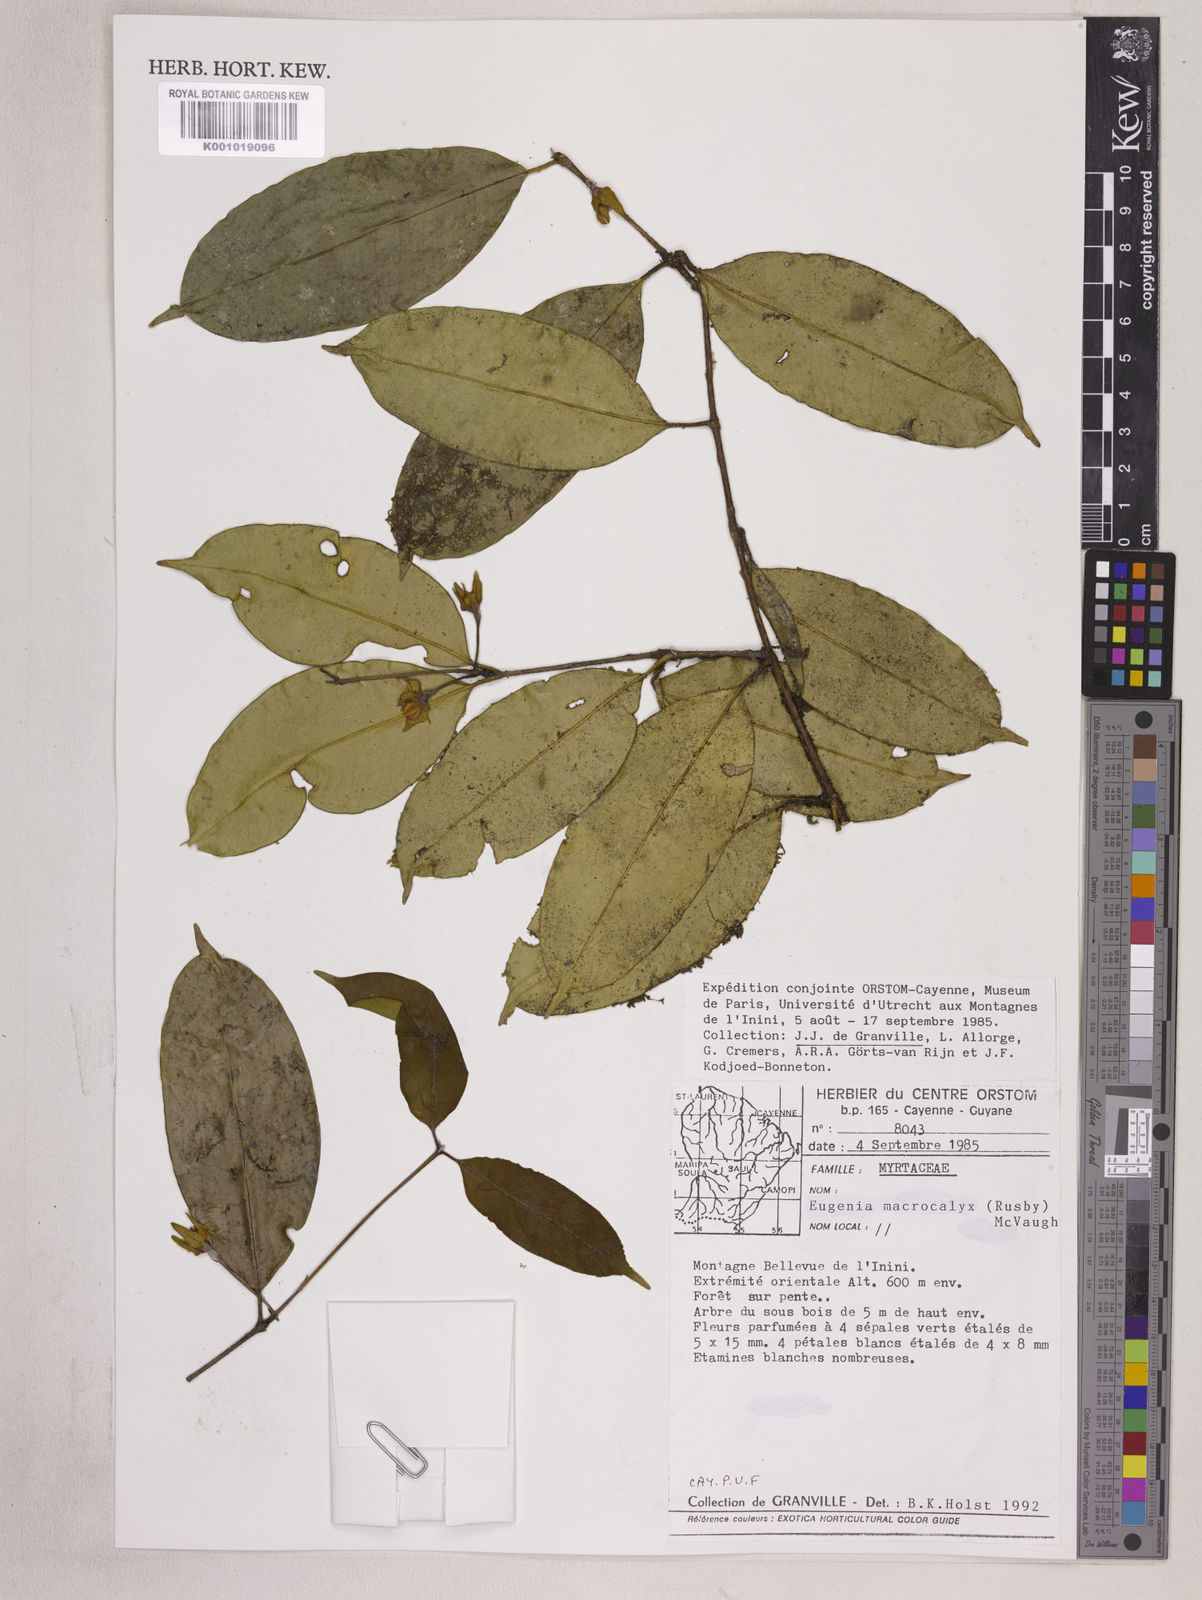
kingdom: Plantae
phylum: Tracheophyta
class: Magnoliopsida
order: Myrtales
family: Myrtaceae
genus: Eugenia
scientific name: Eugenia wentii
